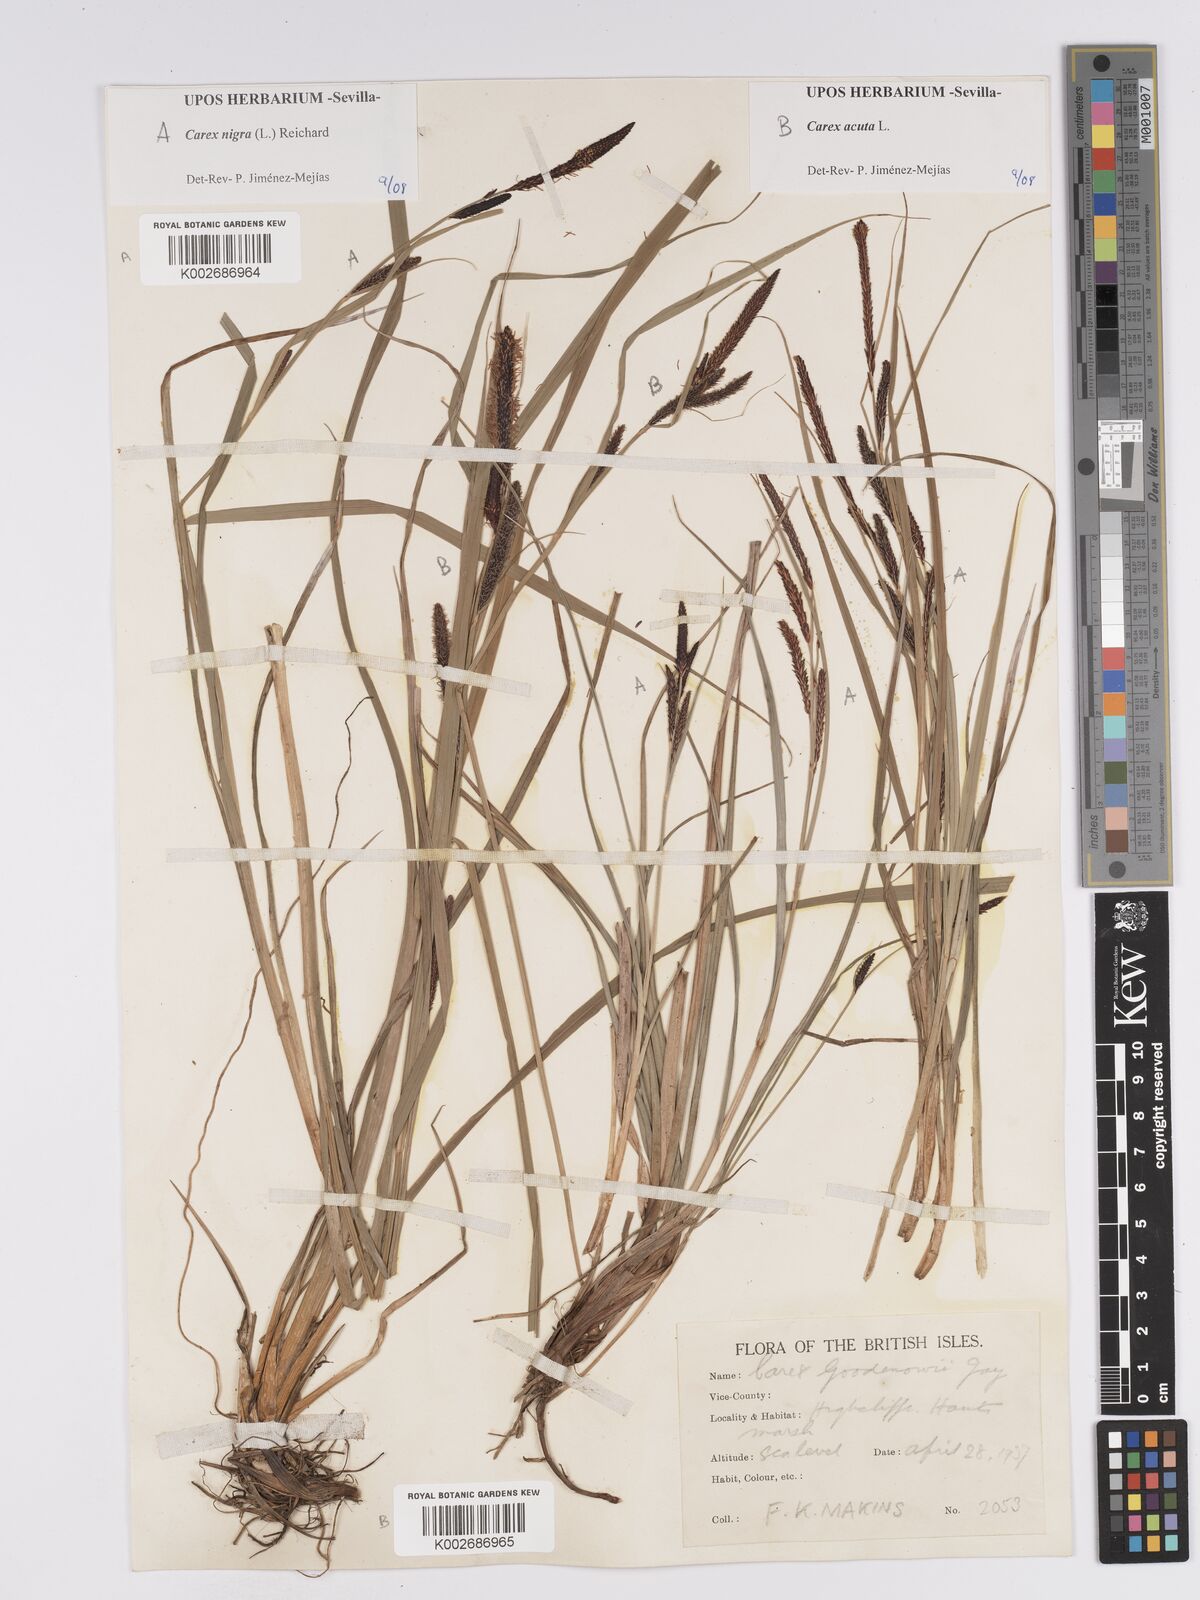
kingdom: Plantae
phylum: Tracheophyta
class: Liliopsida
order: Poales
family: Cyperaceae
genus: Carex
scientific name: Carex nigra
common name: Common sedge
